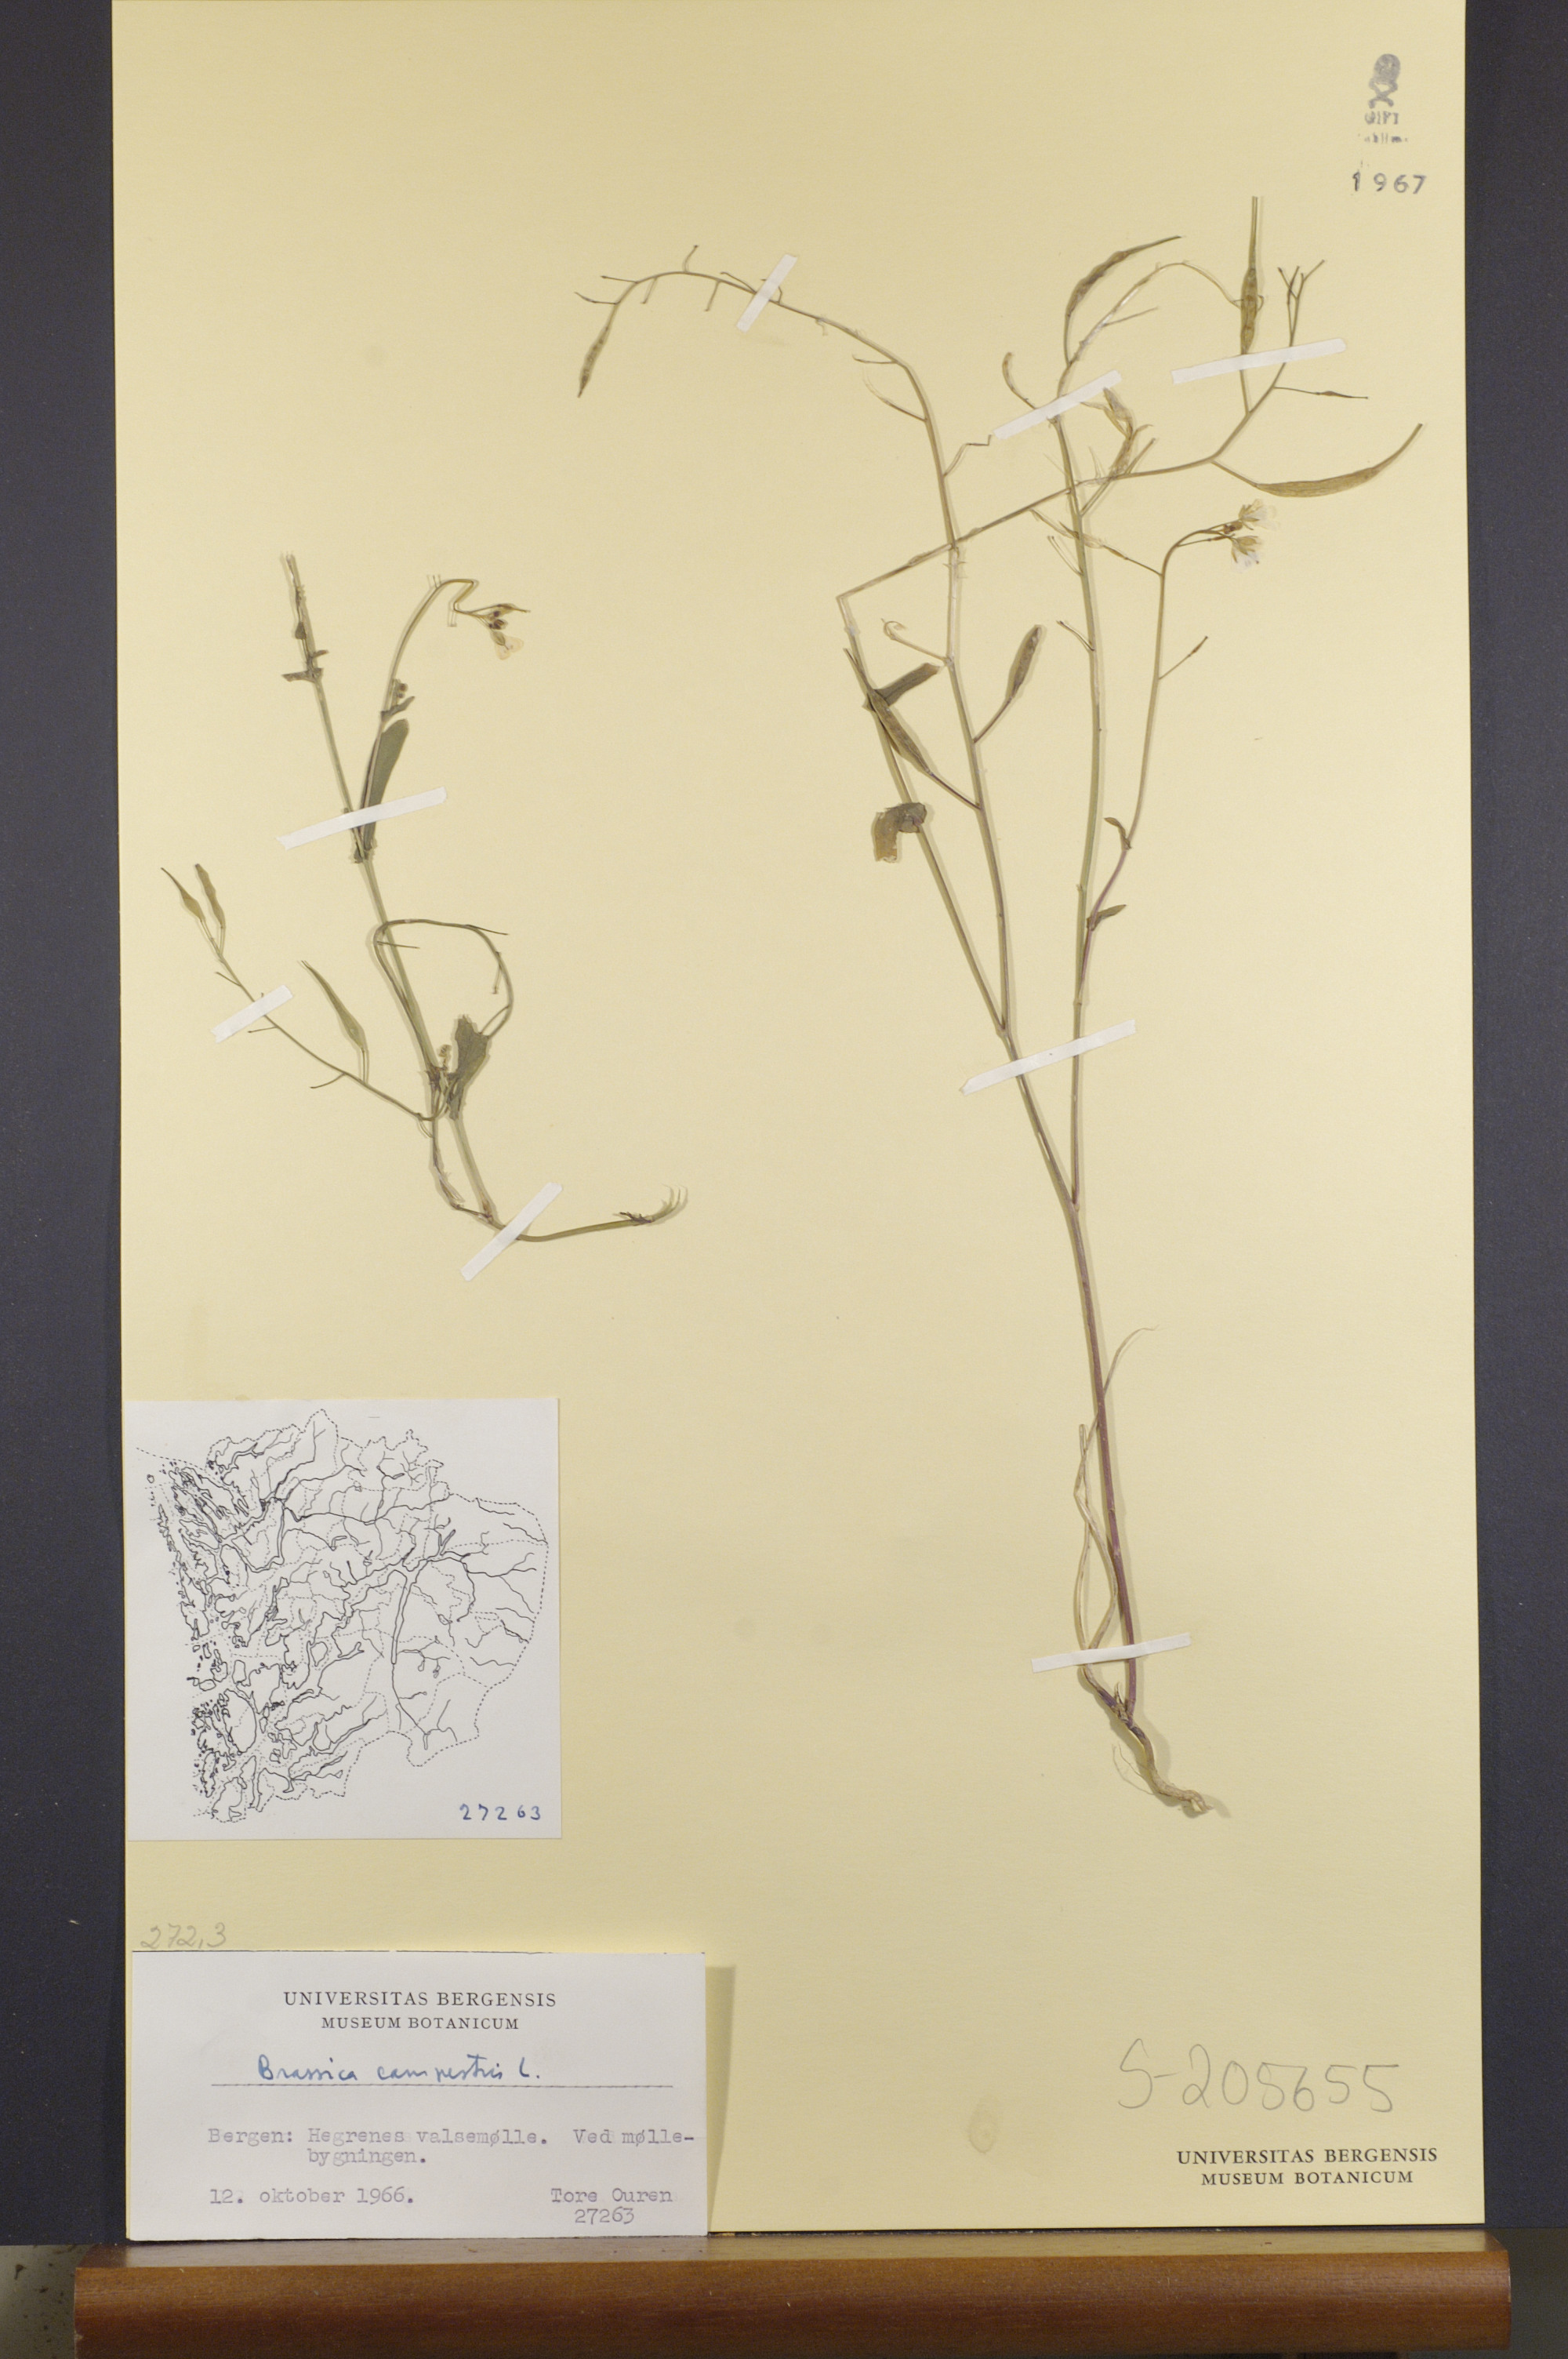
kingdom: Plantae
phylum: Tracheophyta
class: Magnoliopsida
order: Brassicales
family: Brassicaceae
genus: Brassica
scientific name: Brassica rapa
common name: Field mustard
